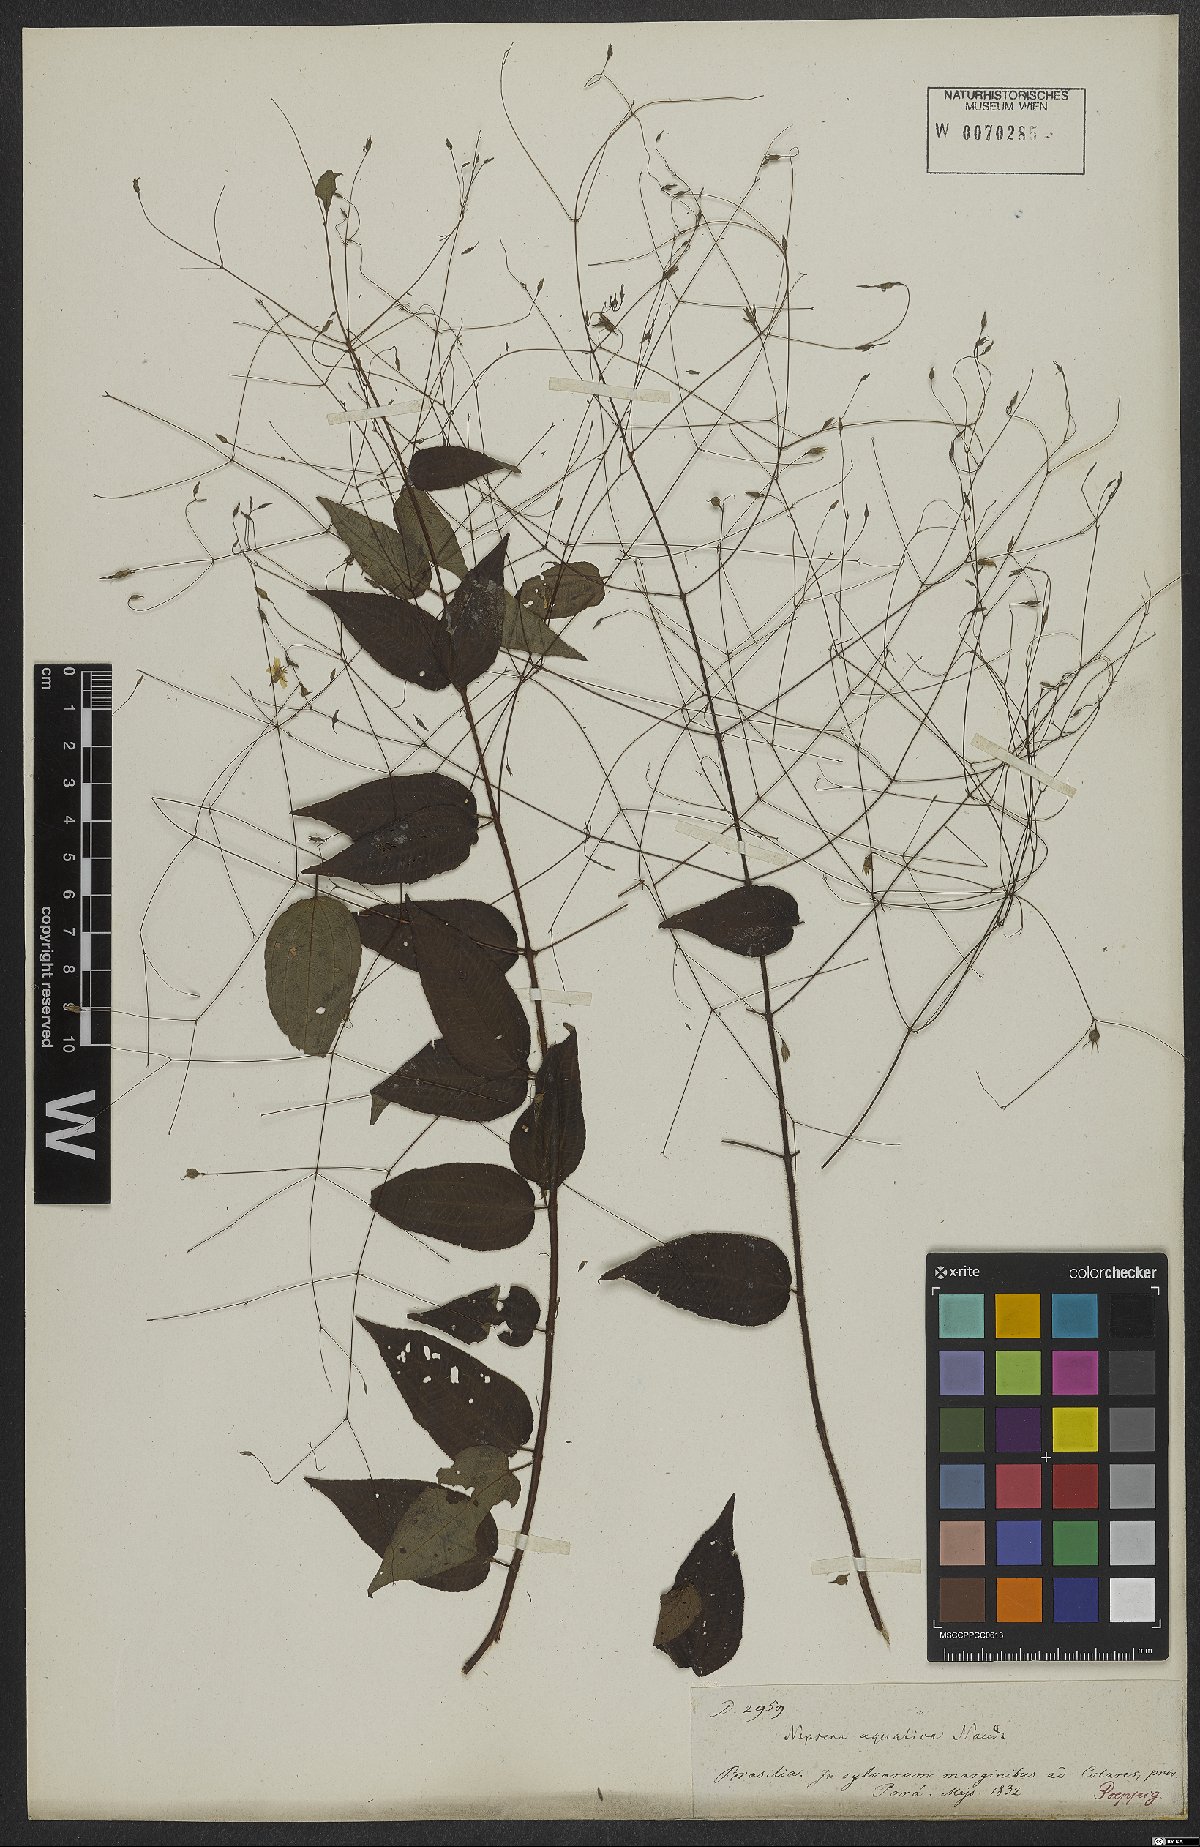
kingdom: Plantae
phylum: Tracheophyta
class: Magnoliopsida
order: Myrtales
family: Melastomataceae
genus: Nepsera
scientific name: Nepsera aquatica
